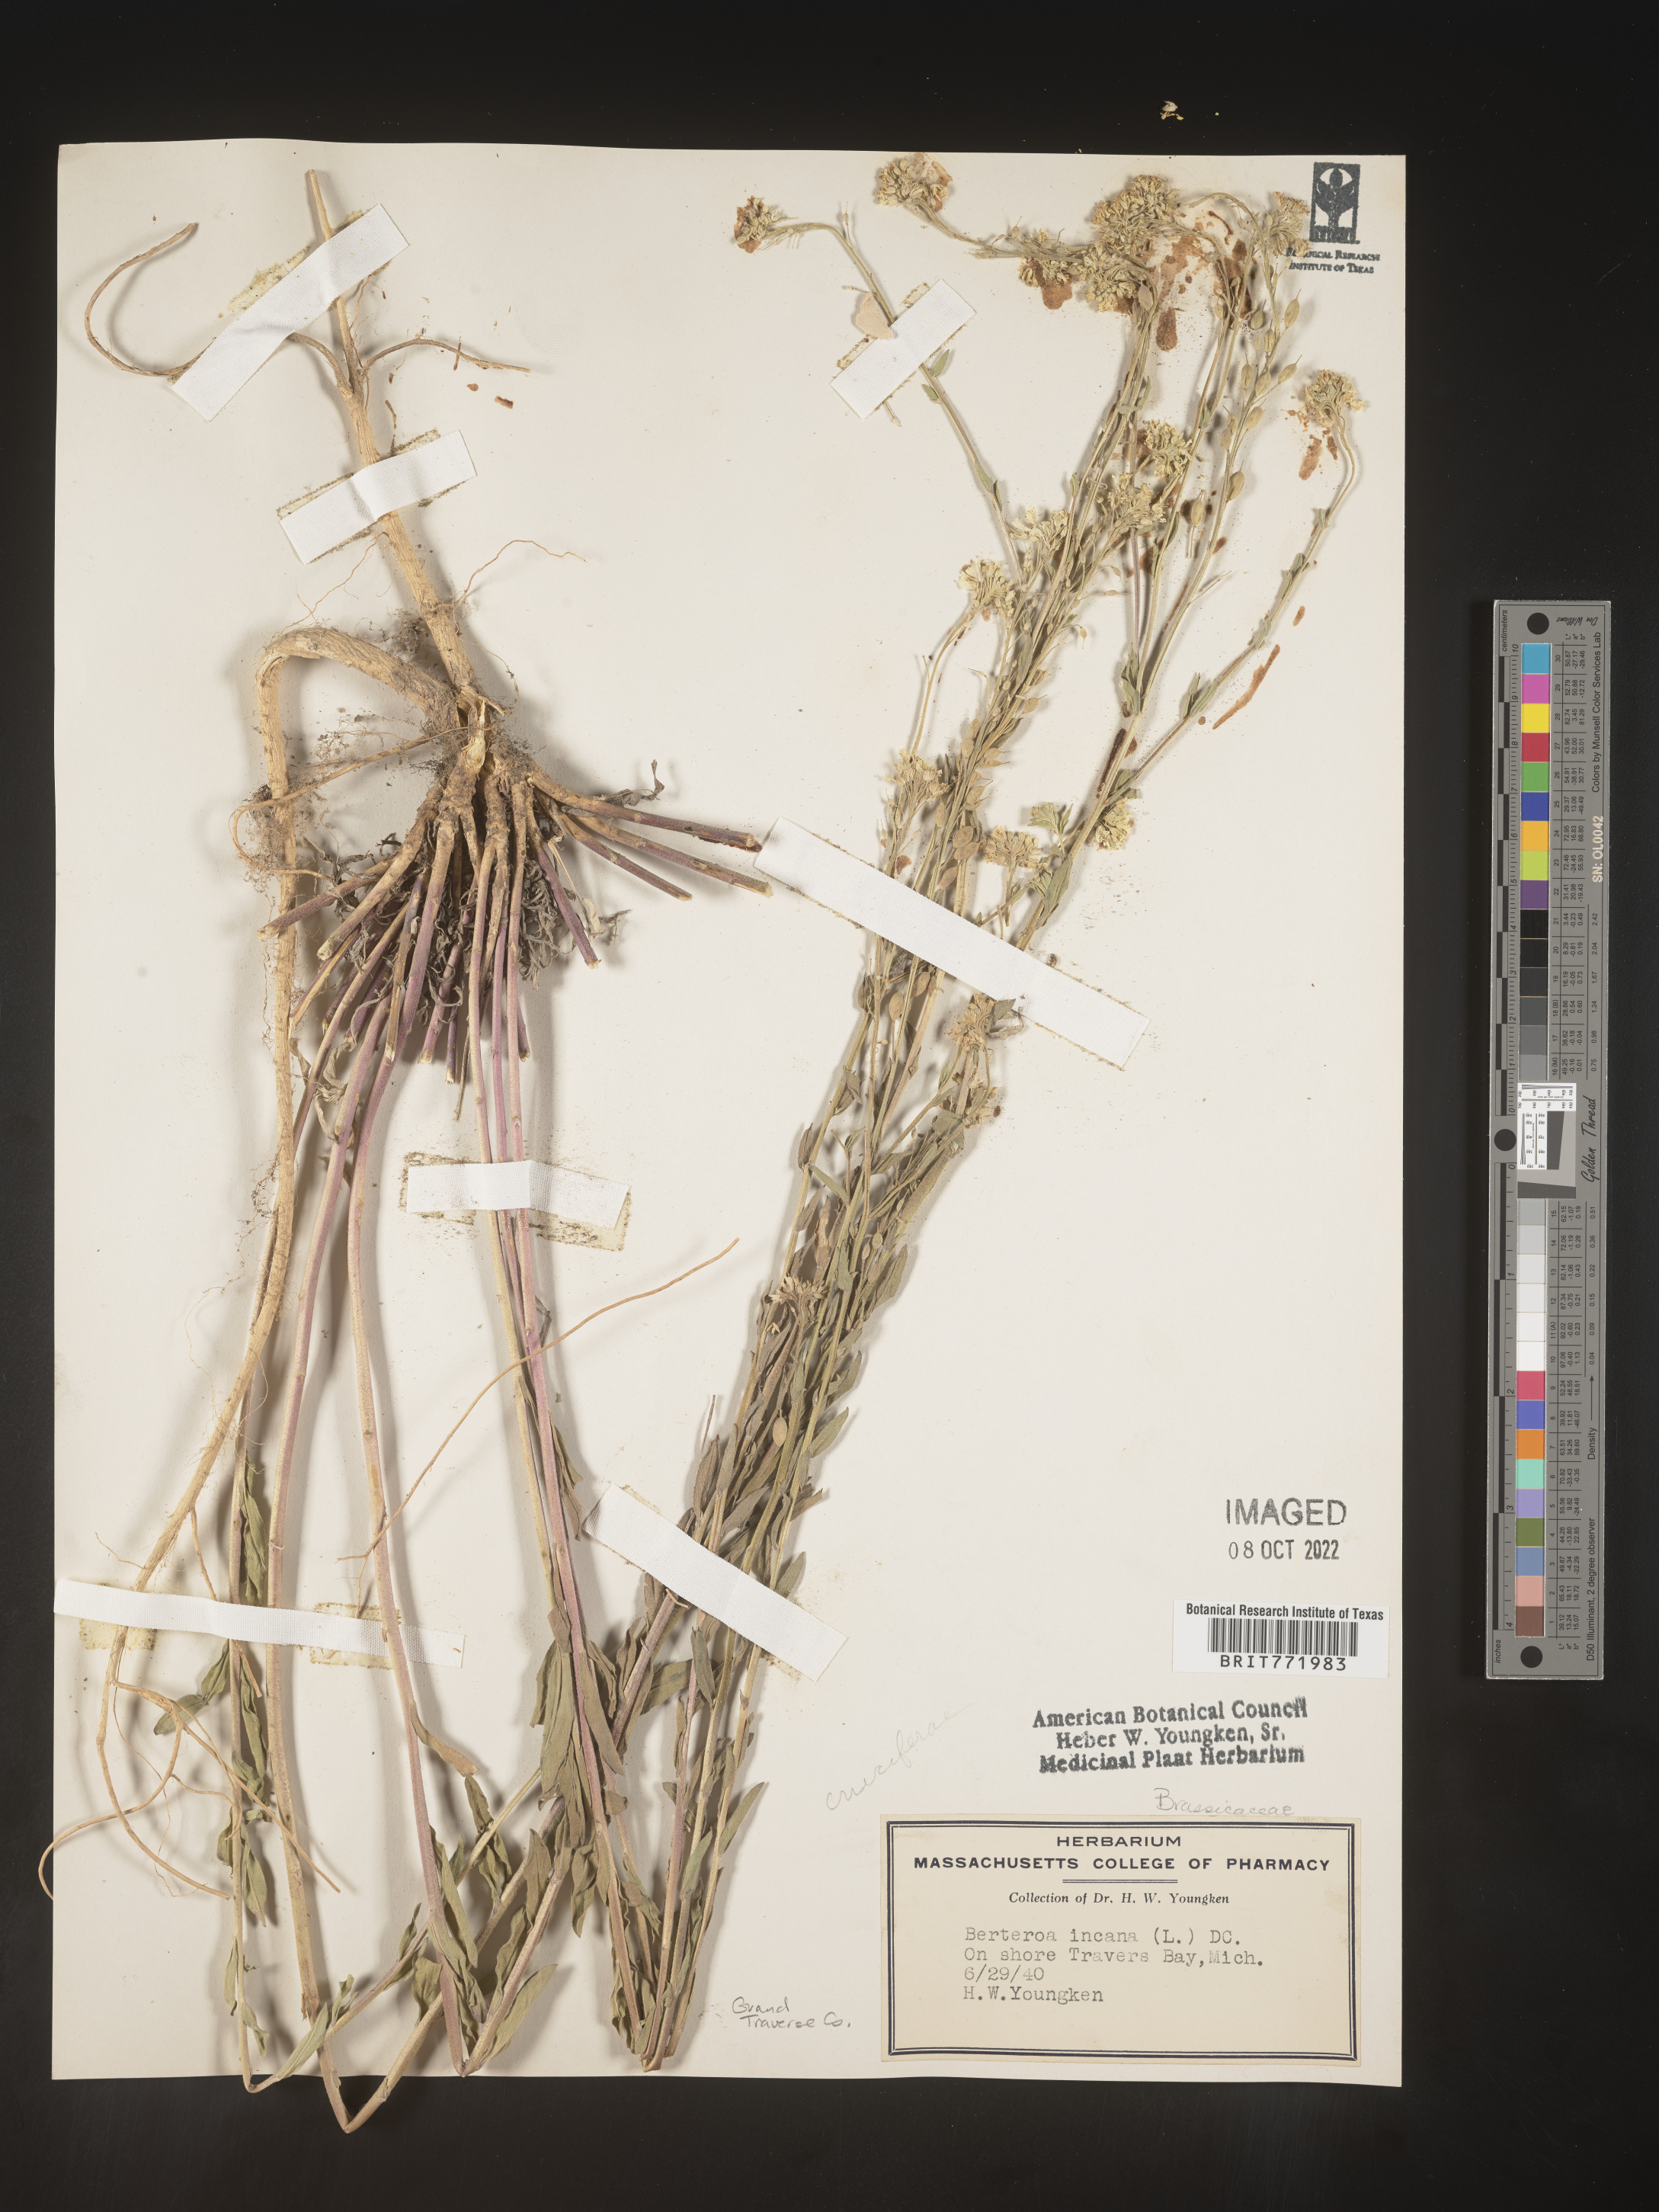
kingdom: Plantae
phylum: Tracheophyta
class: Magnoliopsida
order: Brassicales
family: Brassicaceae
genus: Berteroa
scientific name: Berteroa incana
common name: Hoary alison
